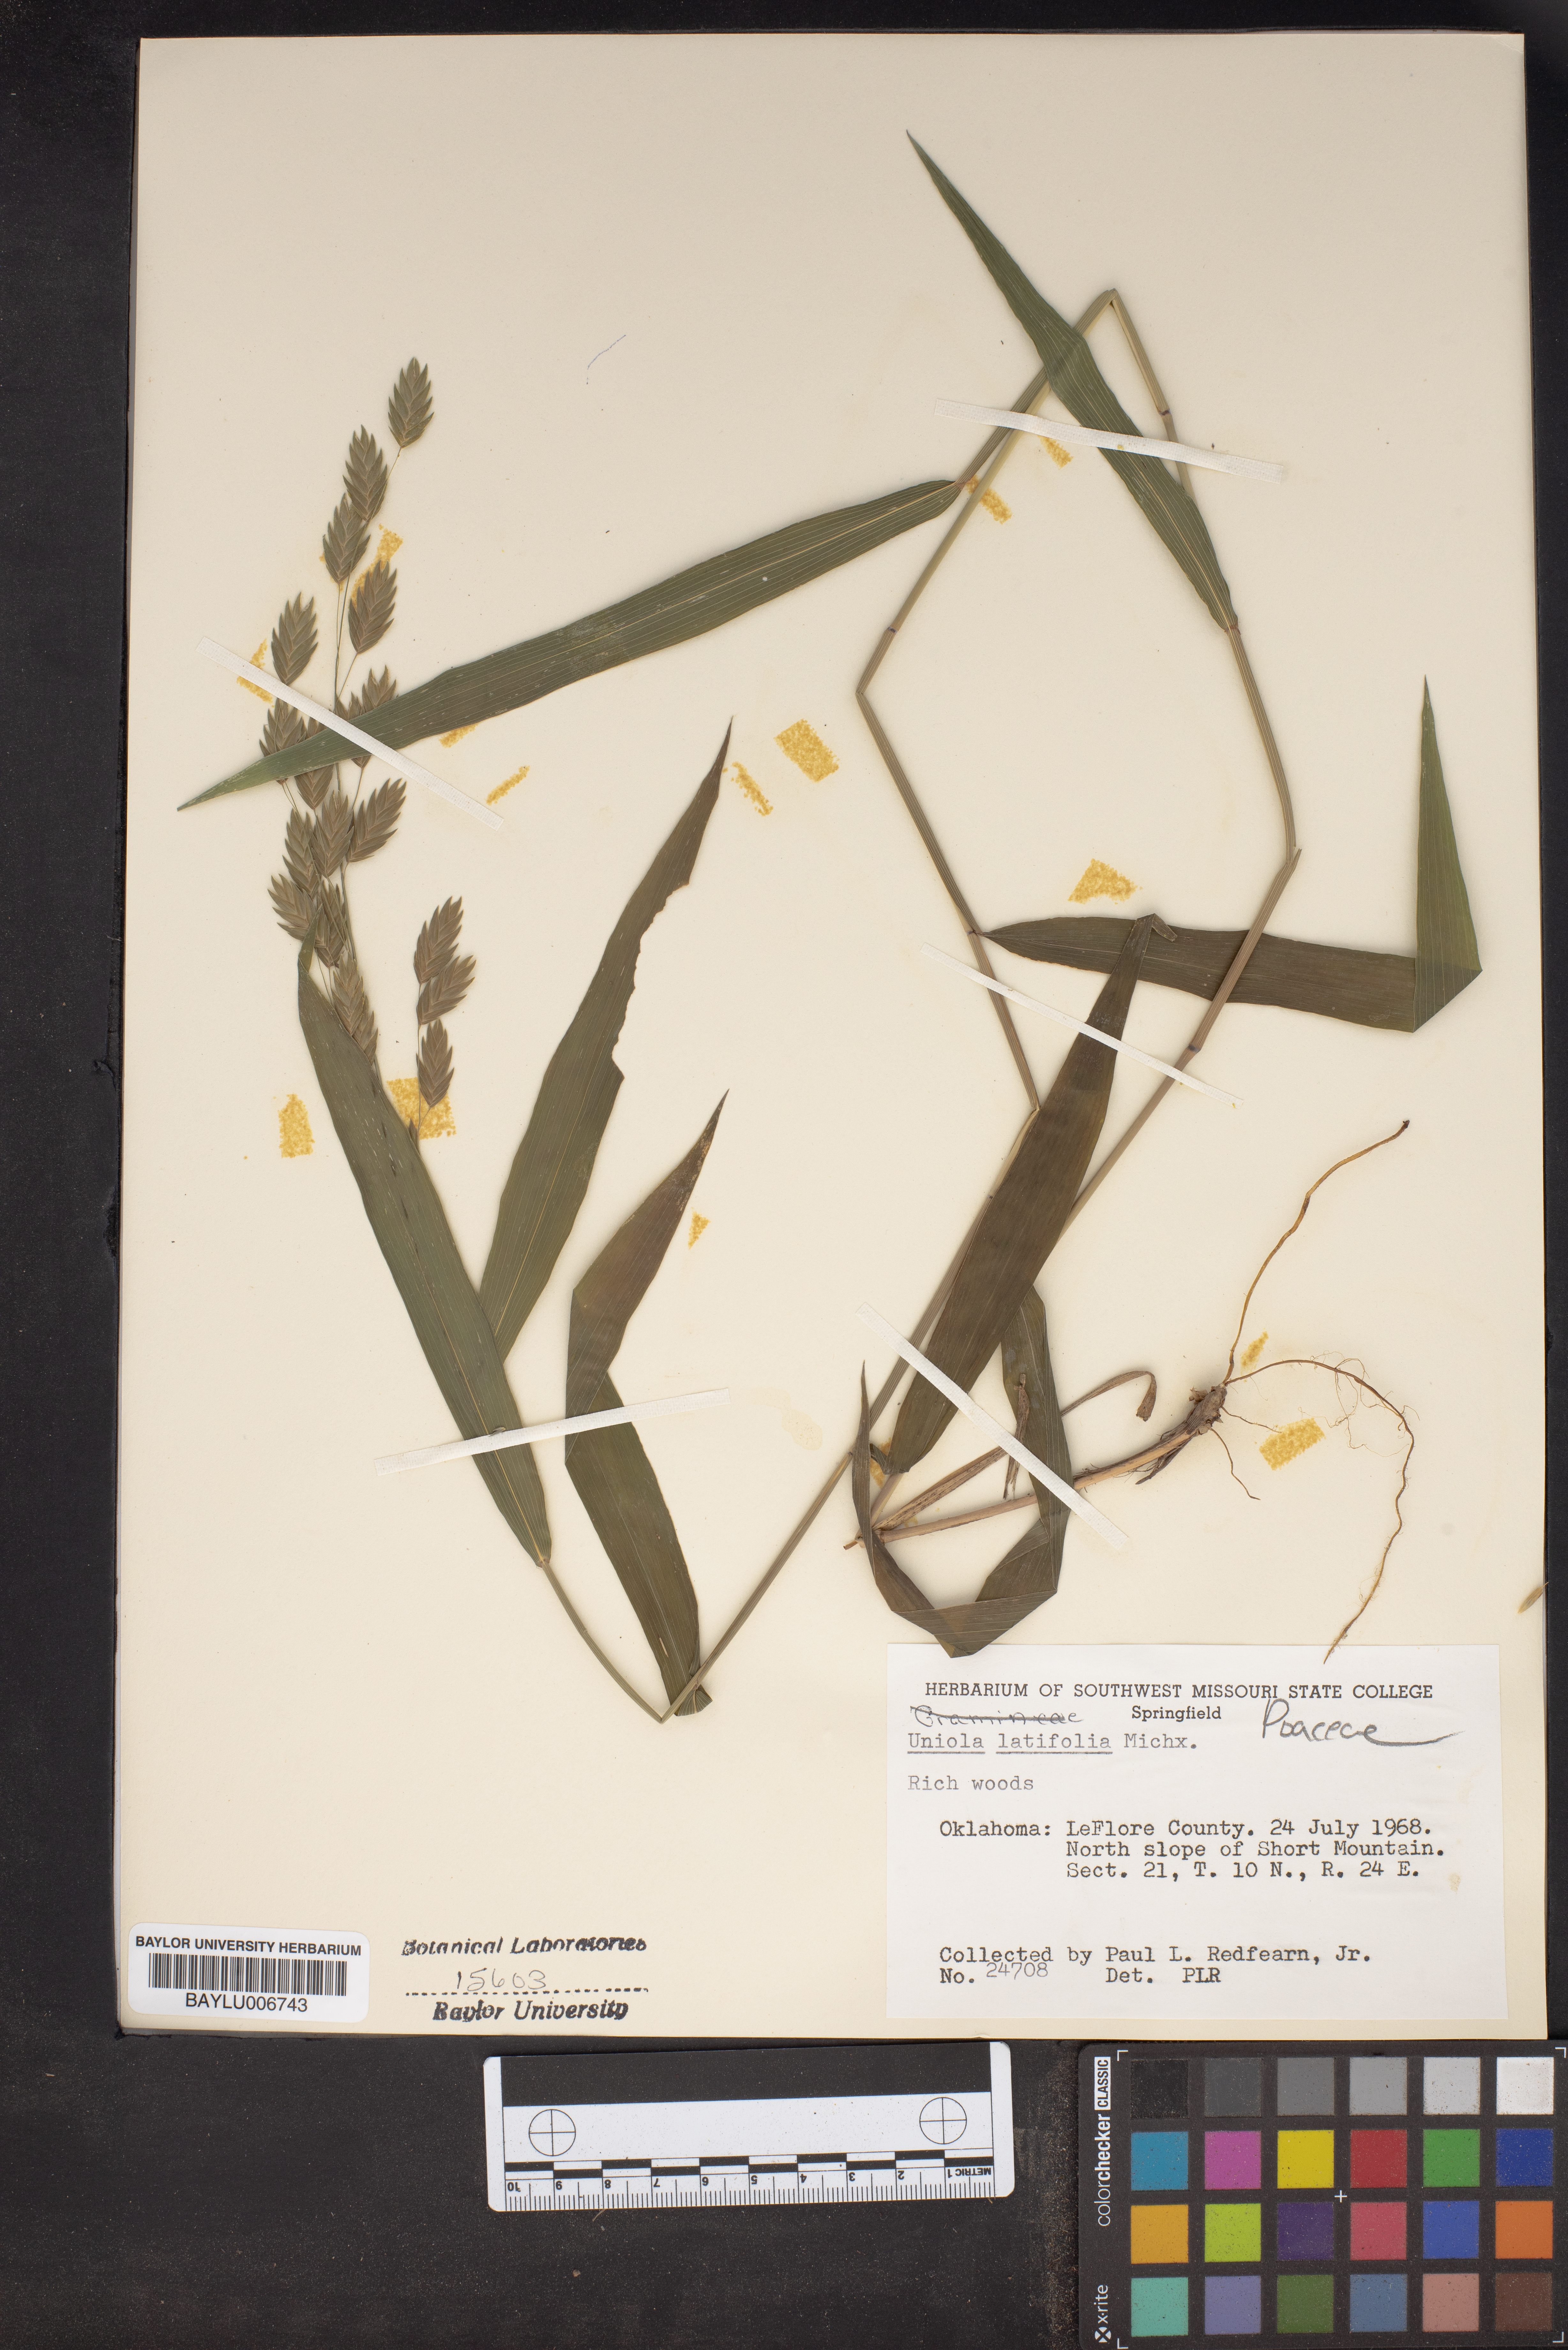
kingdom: Plantae
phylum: Tracheophyta
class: Liliopsida
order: Poales
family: Poaceae
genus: Chasmanthium
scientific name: Chasmanthium latifolium
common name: Broad-leaved chasmanthium
